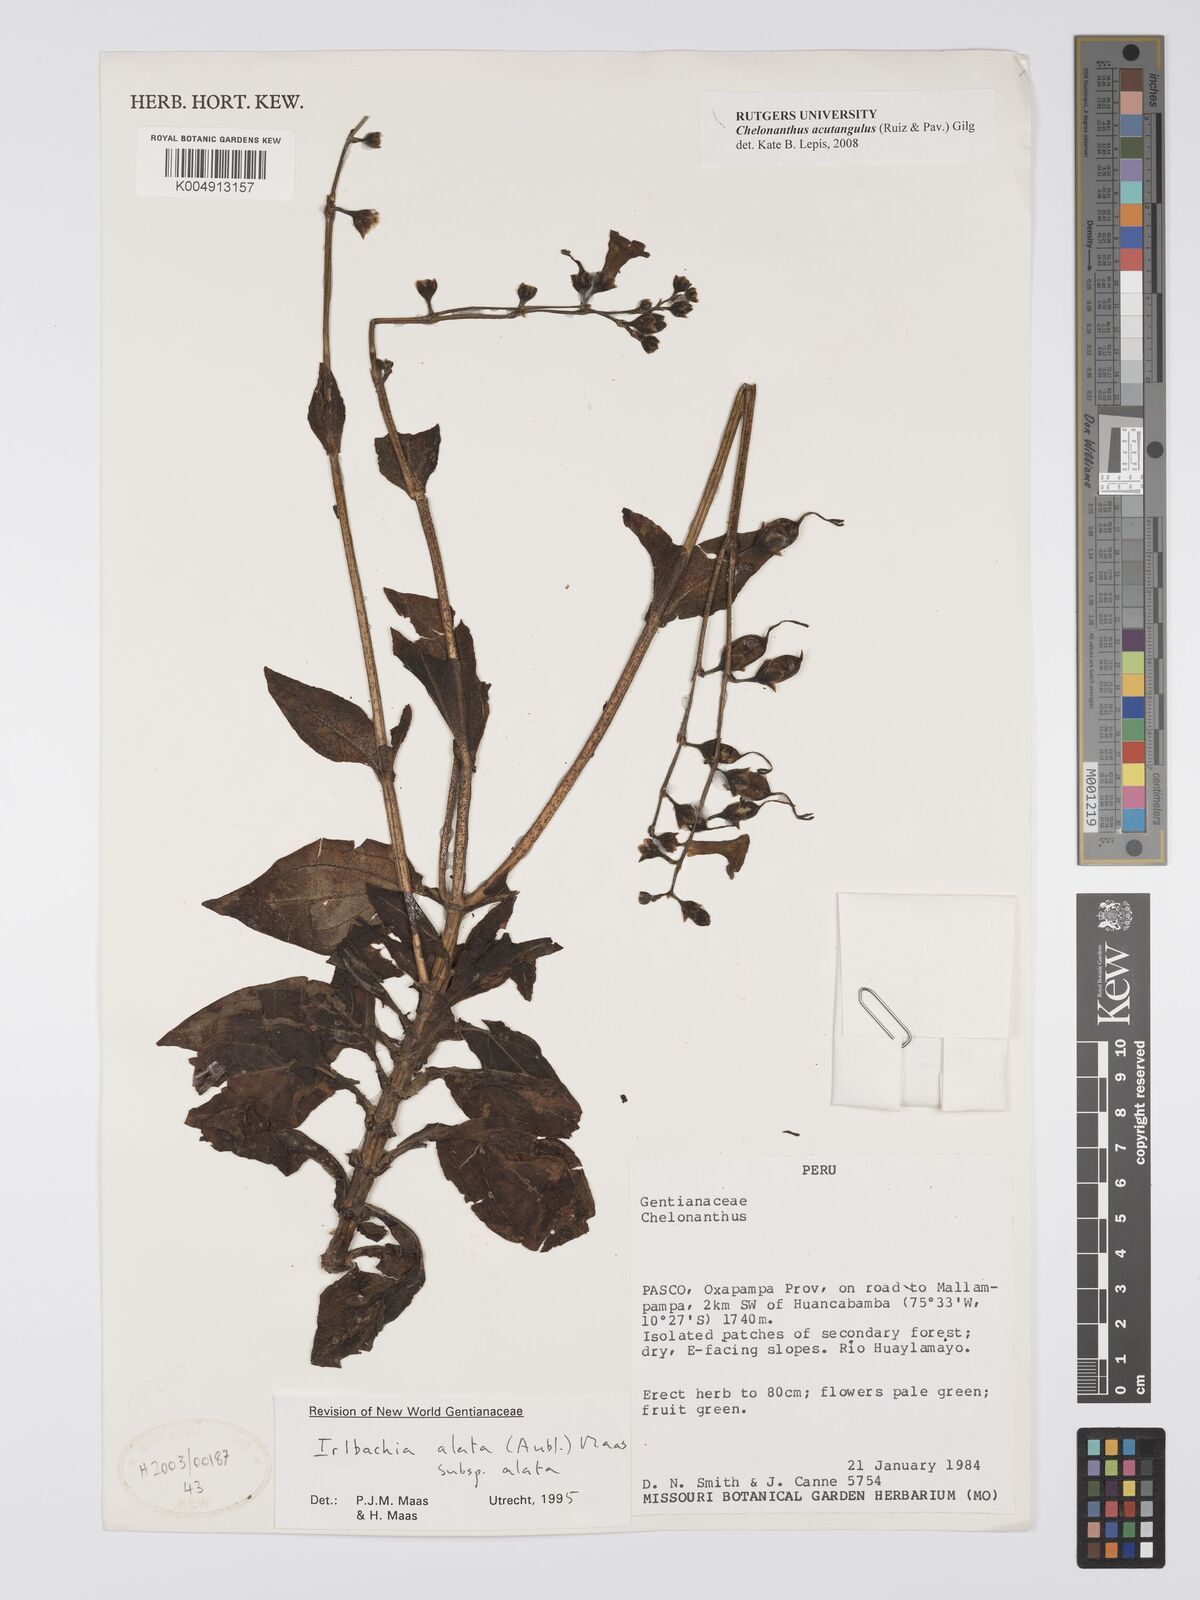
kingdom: Plantae
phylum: Tracheophyta
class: Magnoliopsida
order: Gentianales
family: Gentianaceae
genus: Chelonanthus
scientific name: Chelonanthus alatus
